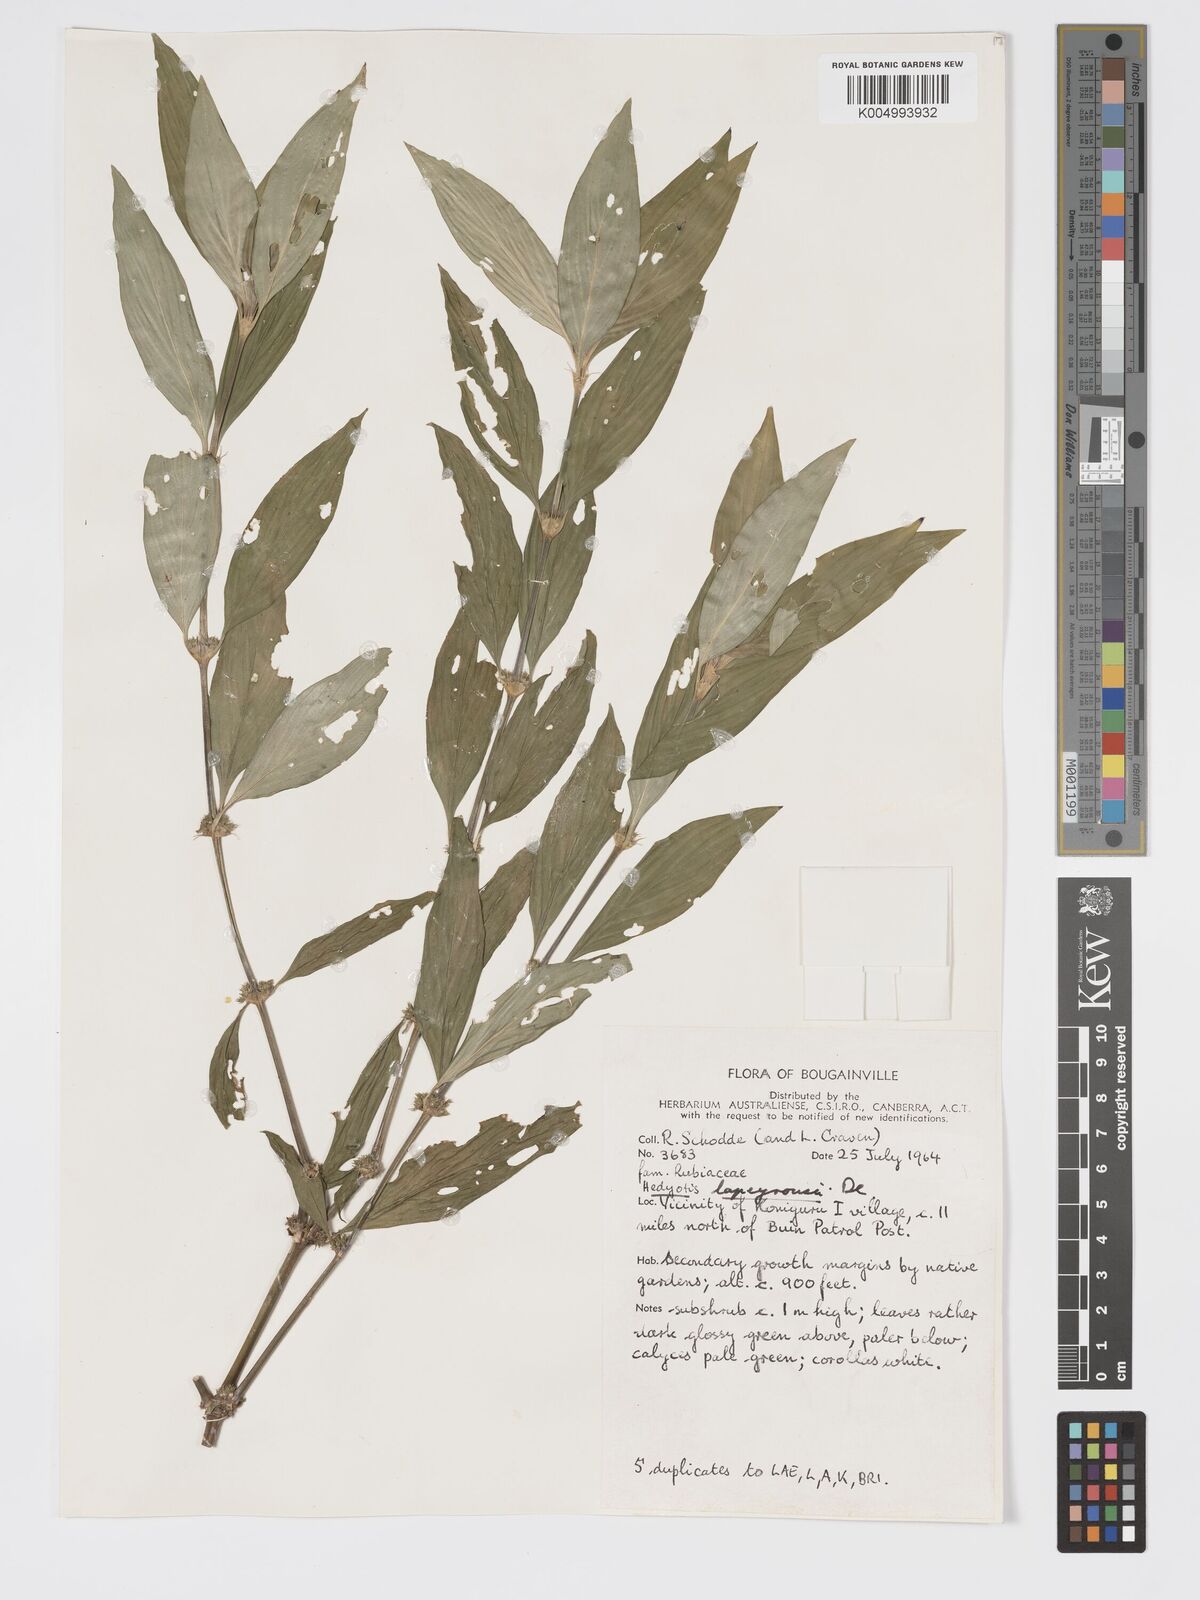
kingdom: Plantae
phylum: Tracheophyta
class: Magnoliopsida
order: Gentianales
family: Rubiaceae
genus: Exallage
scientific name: Exallage lapeyrousei
